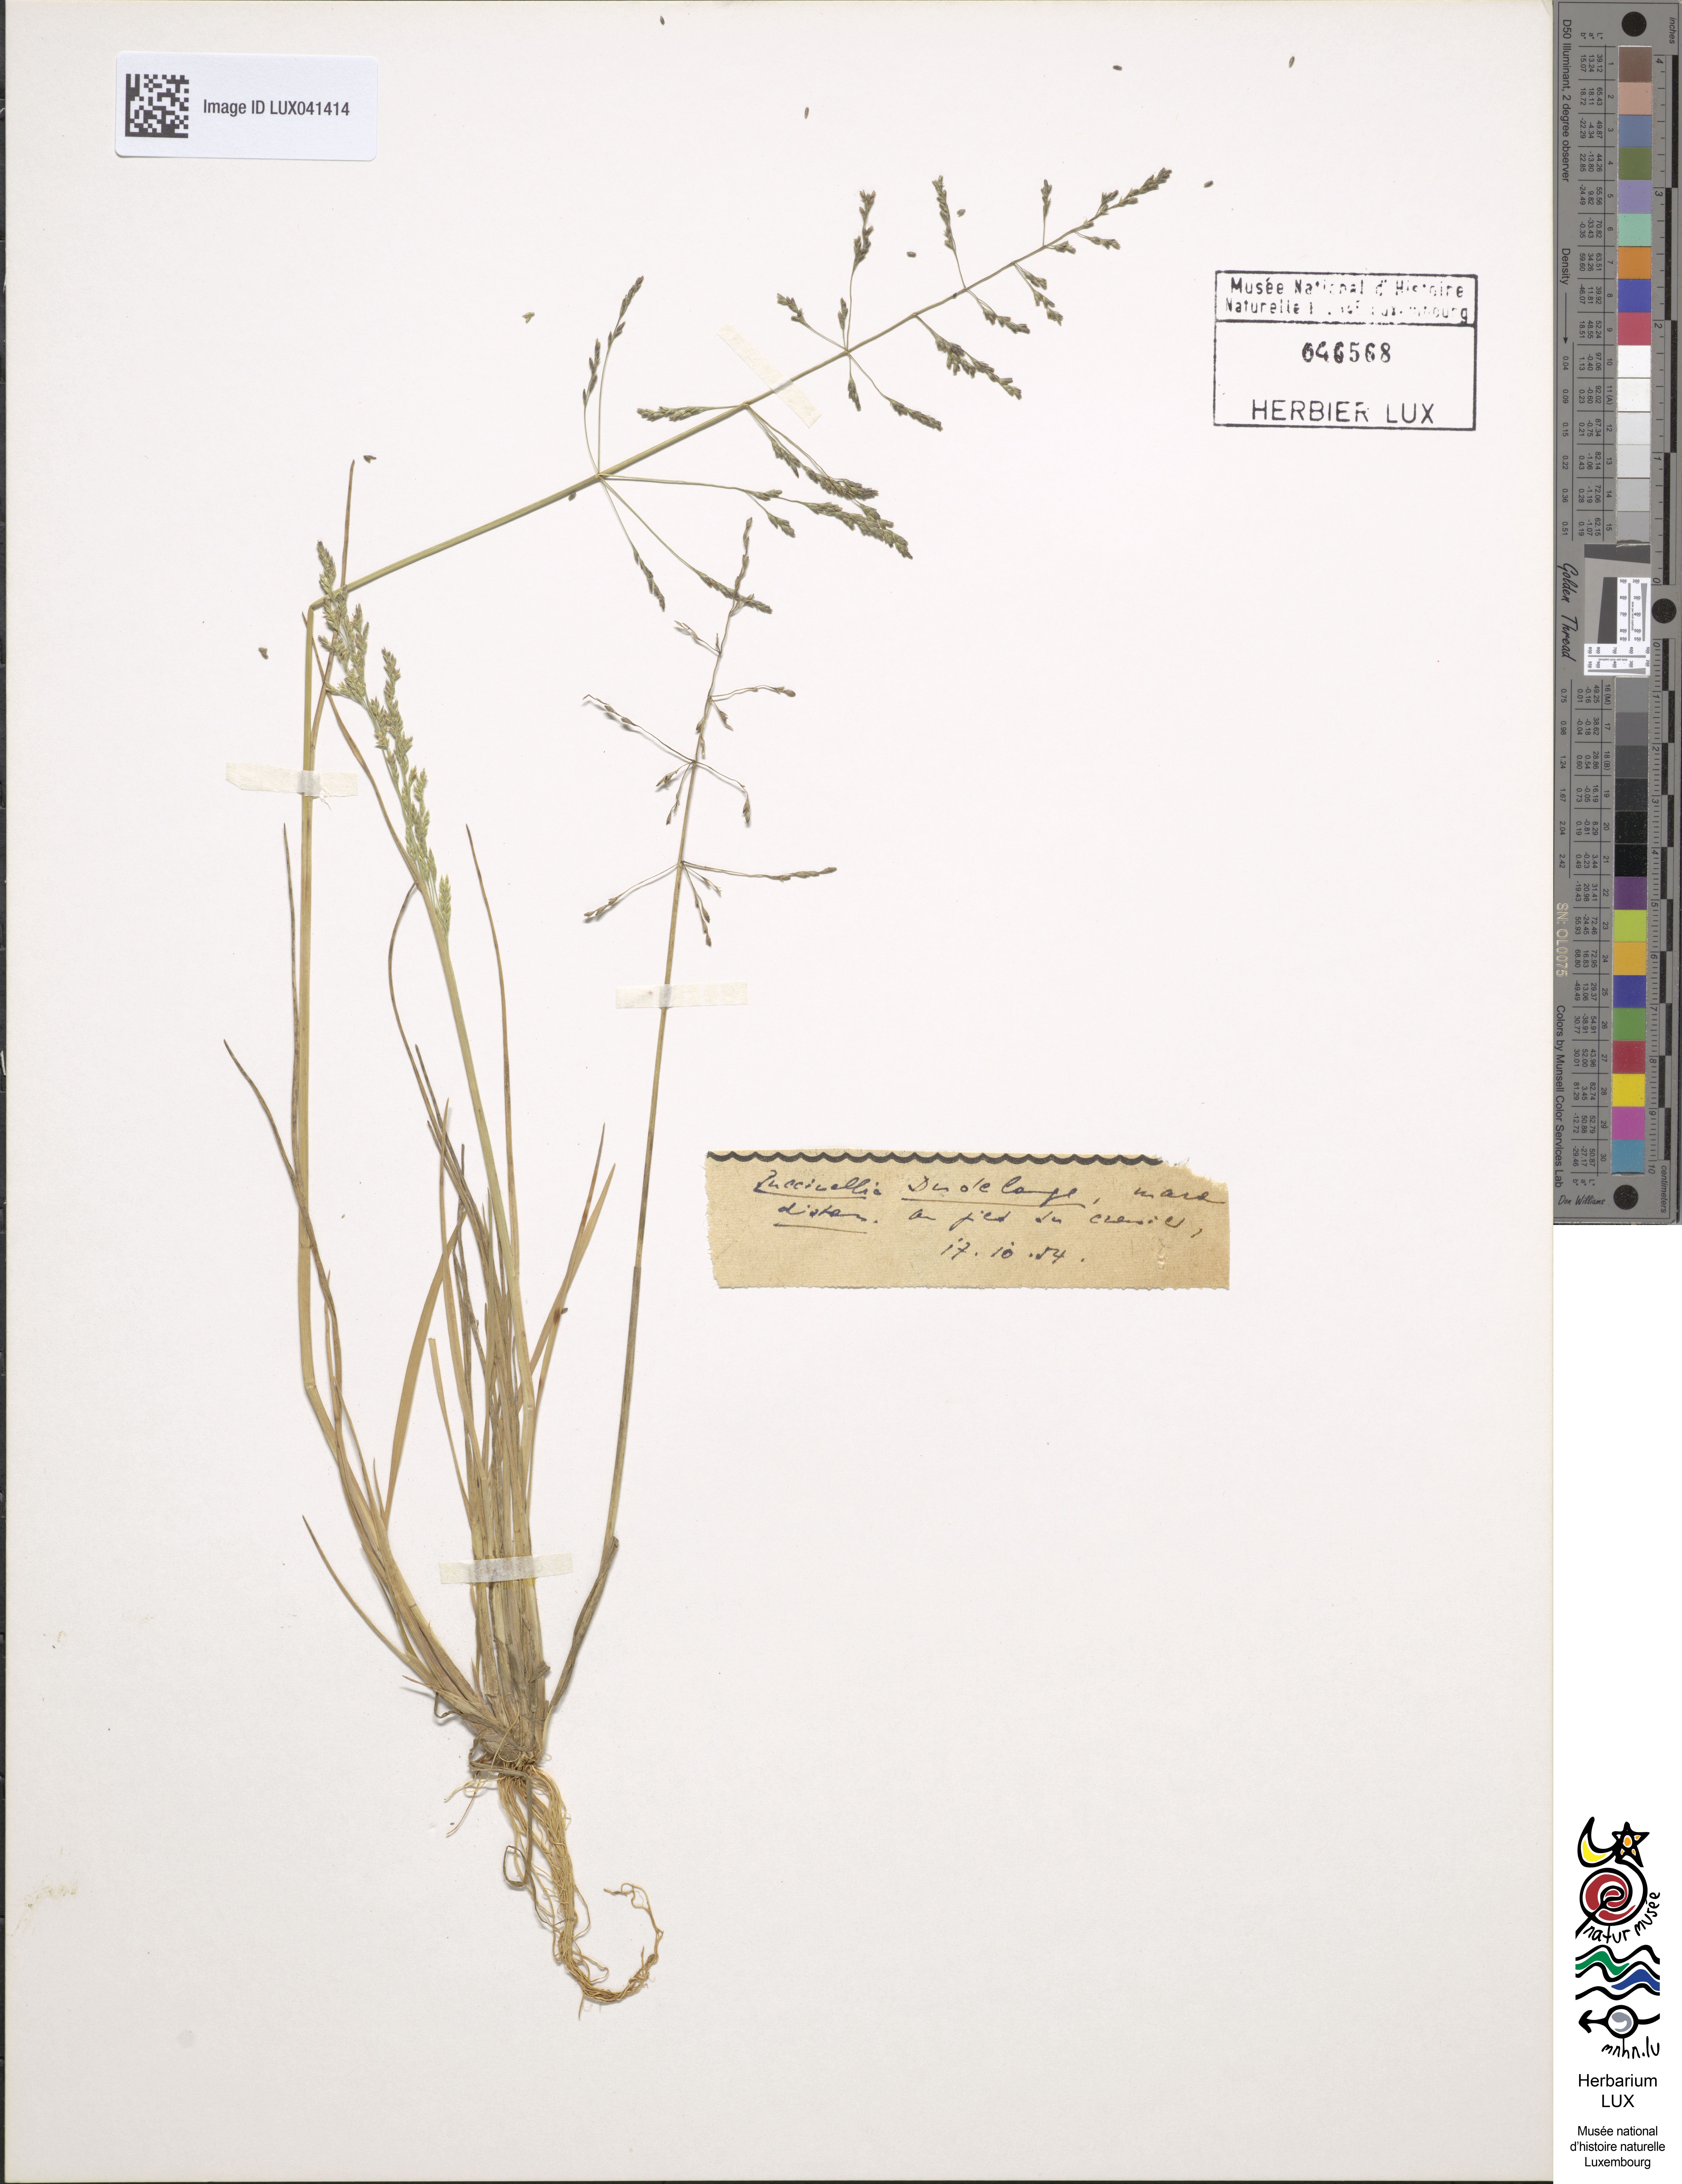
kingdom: Plantae
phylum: Tracheophyta
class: Liliopsida
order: Poales
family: Poaceae
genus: Puccinellia
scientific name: Puccinellia distans
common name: Weeping alkaligrass
